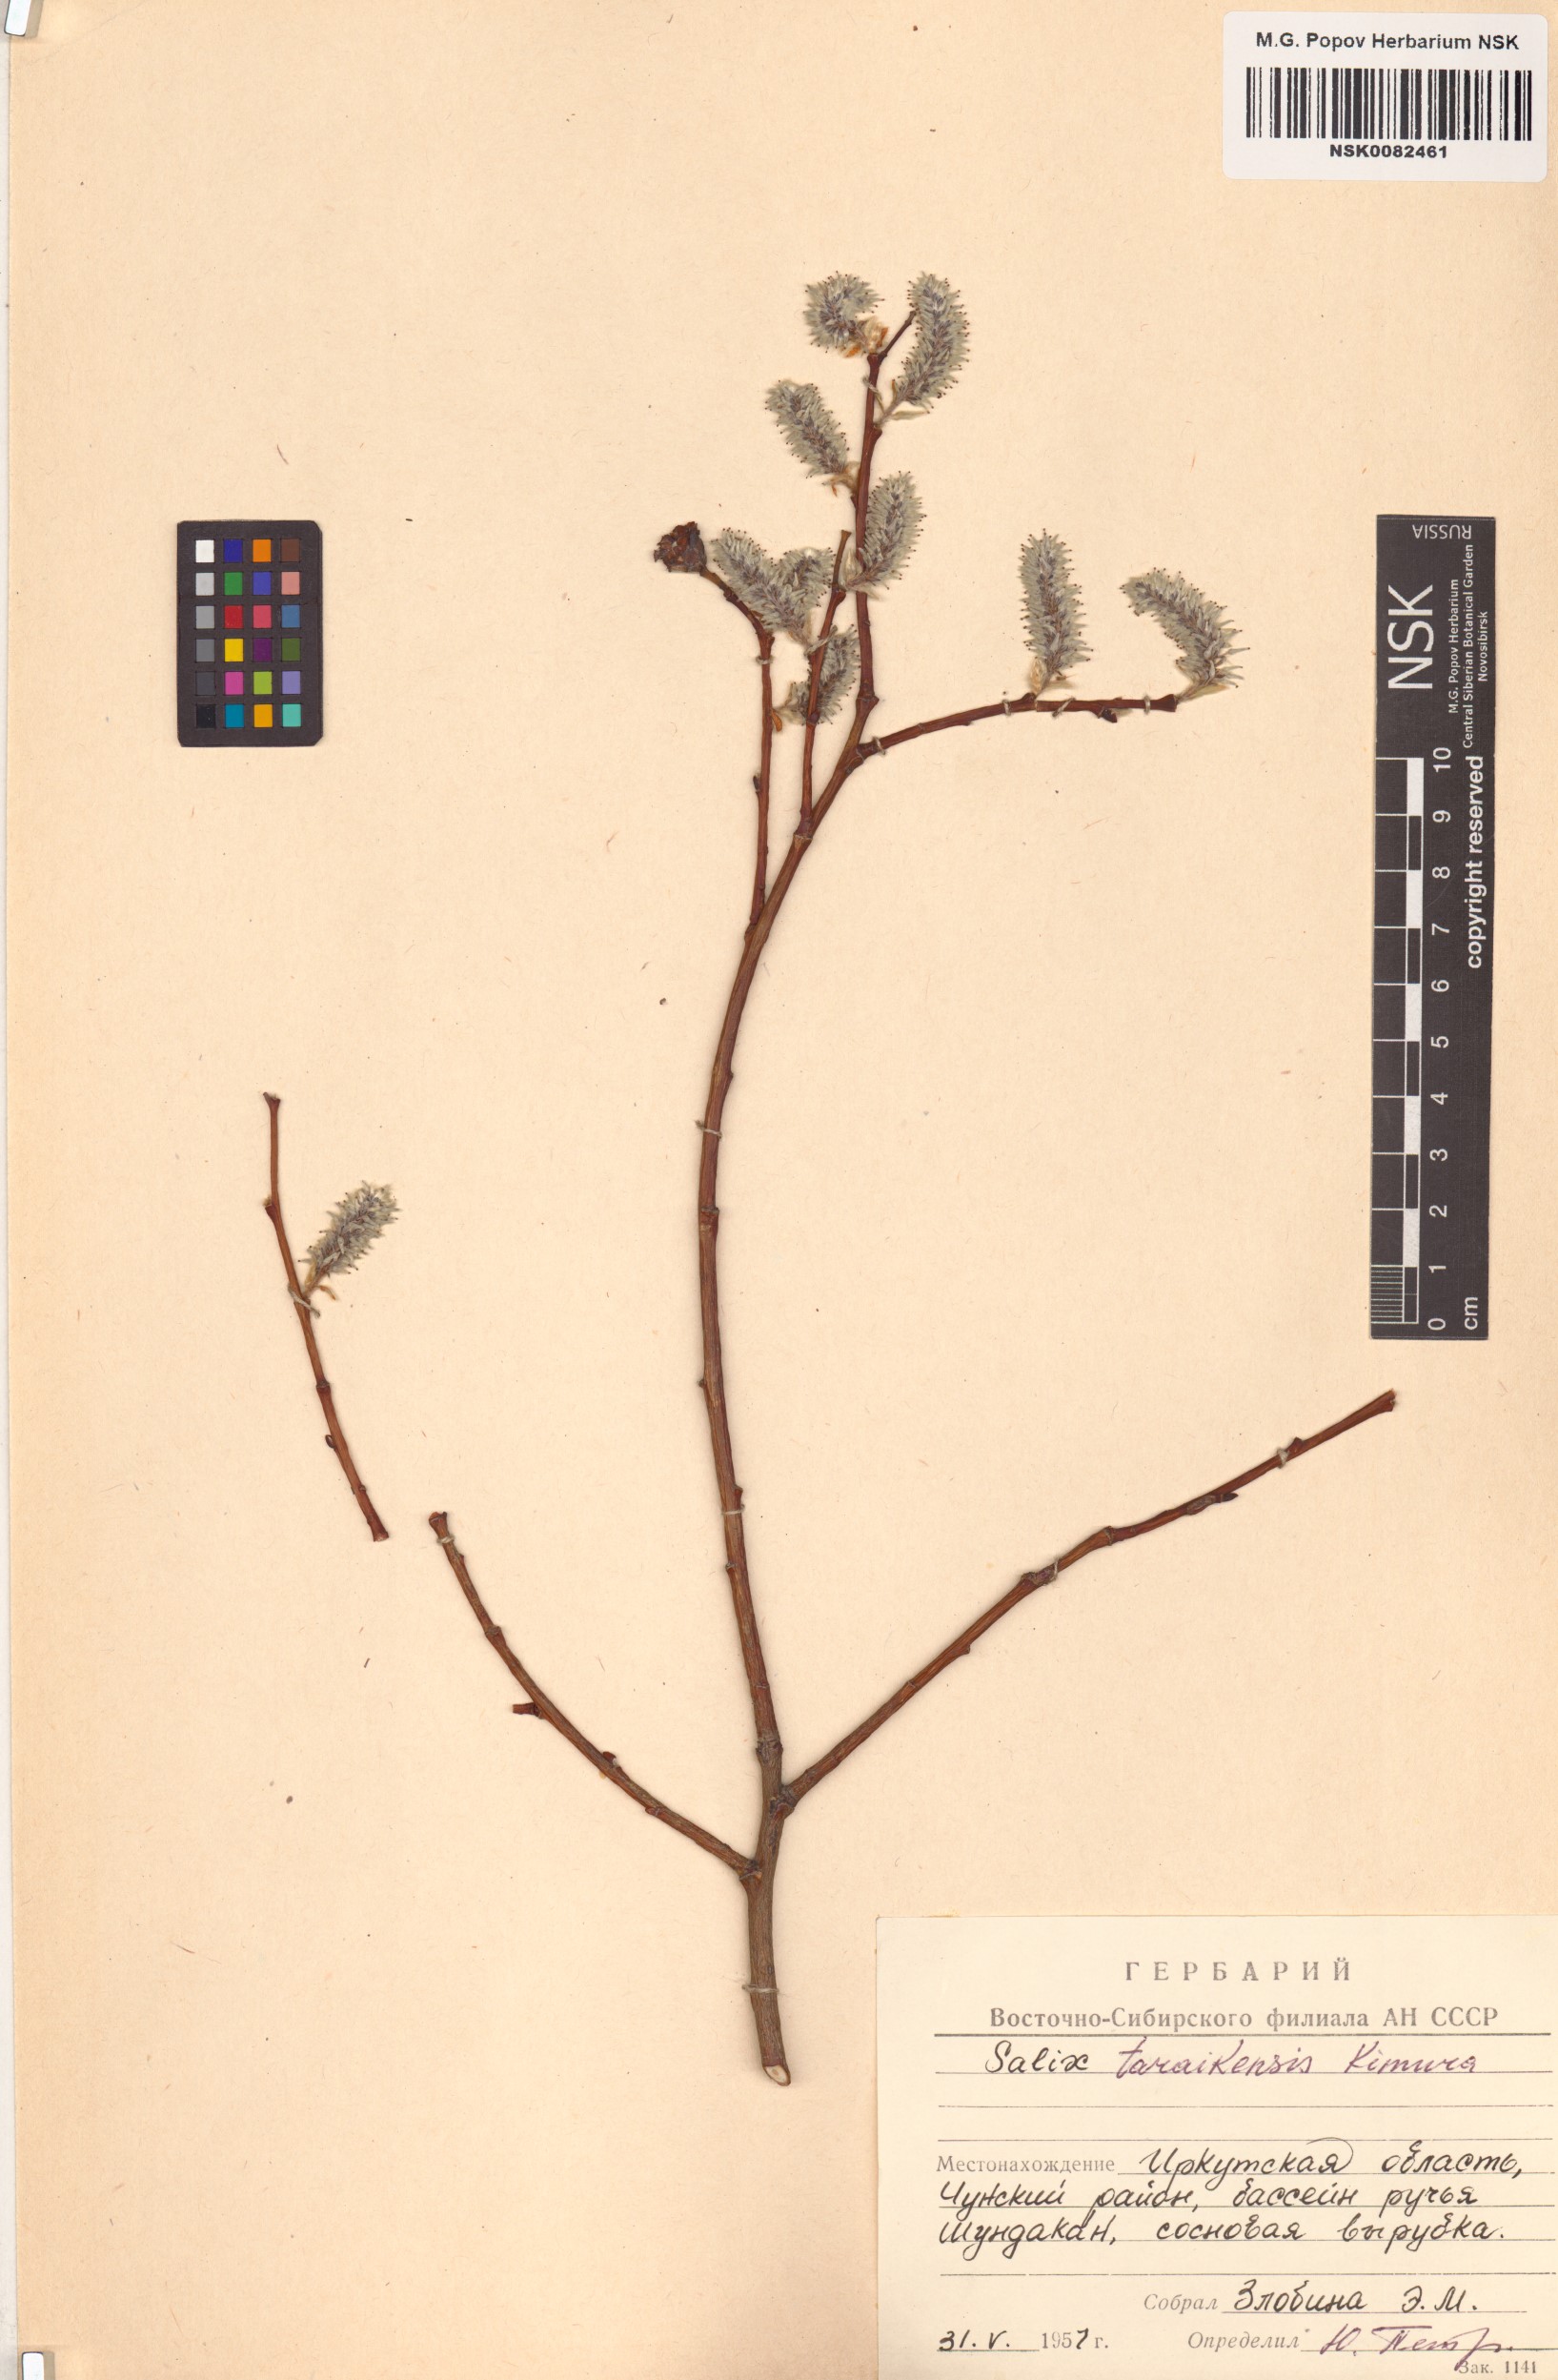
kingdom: Plantae
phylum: Tracheophyta
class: Magnoliopsida
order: Malpighiales
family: Salicaceae
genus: Salix
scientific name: Salix taraikensis
